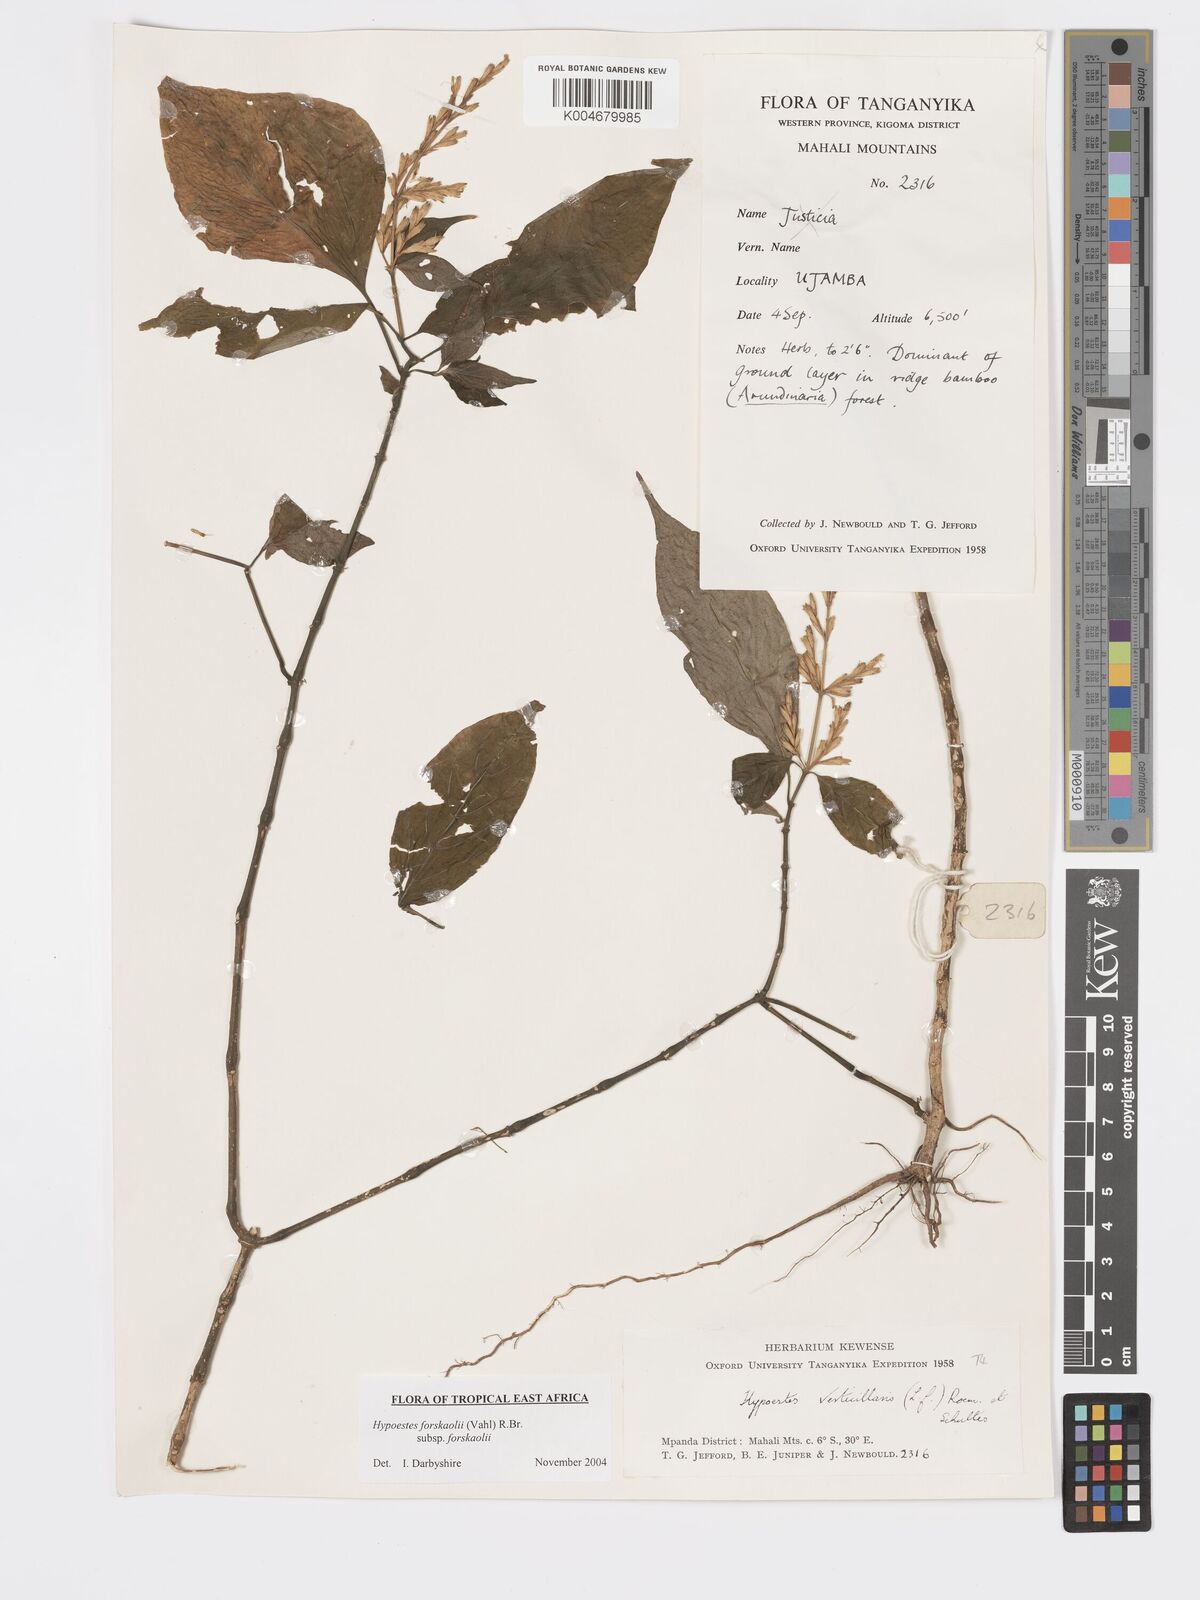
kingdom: Plantae
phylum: Tracheophyta
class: Magnoliopsida
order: Lamiales
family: Acanthaceae
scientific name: Acanthaceae
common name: Acanthaceae
